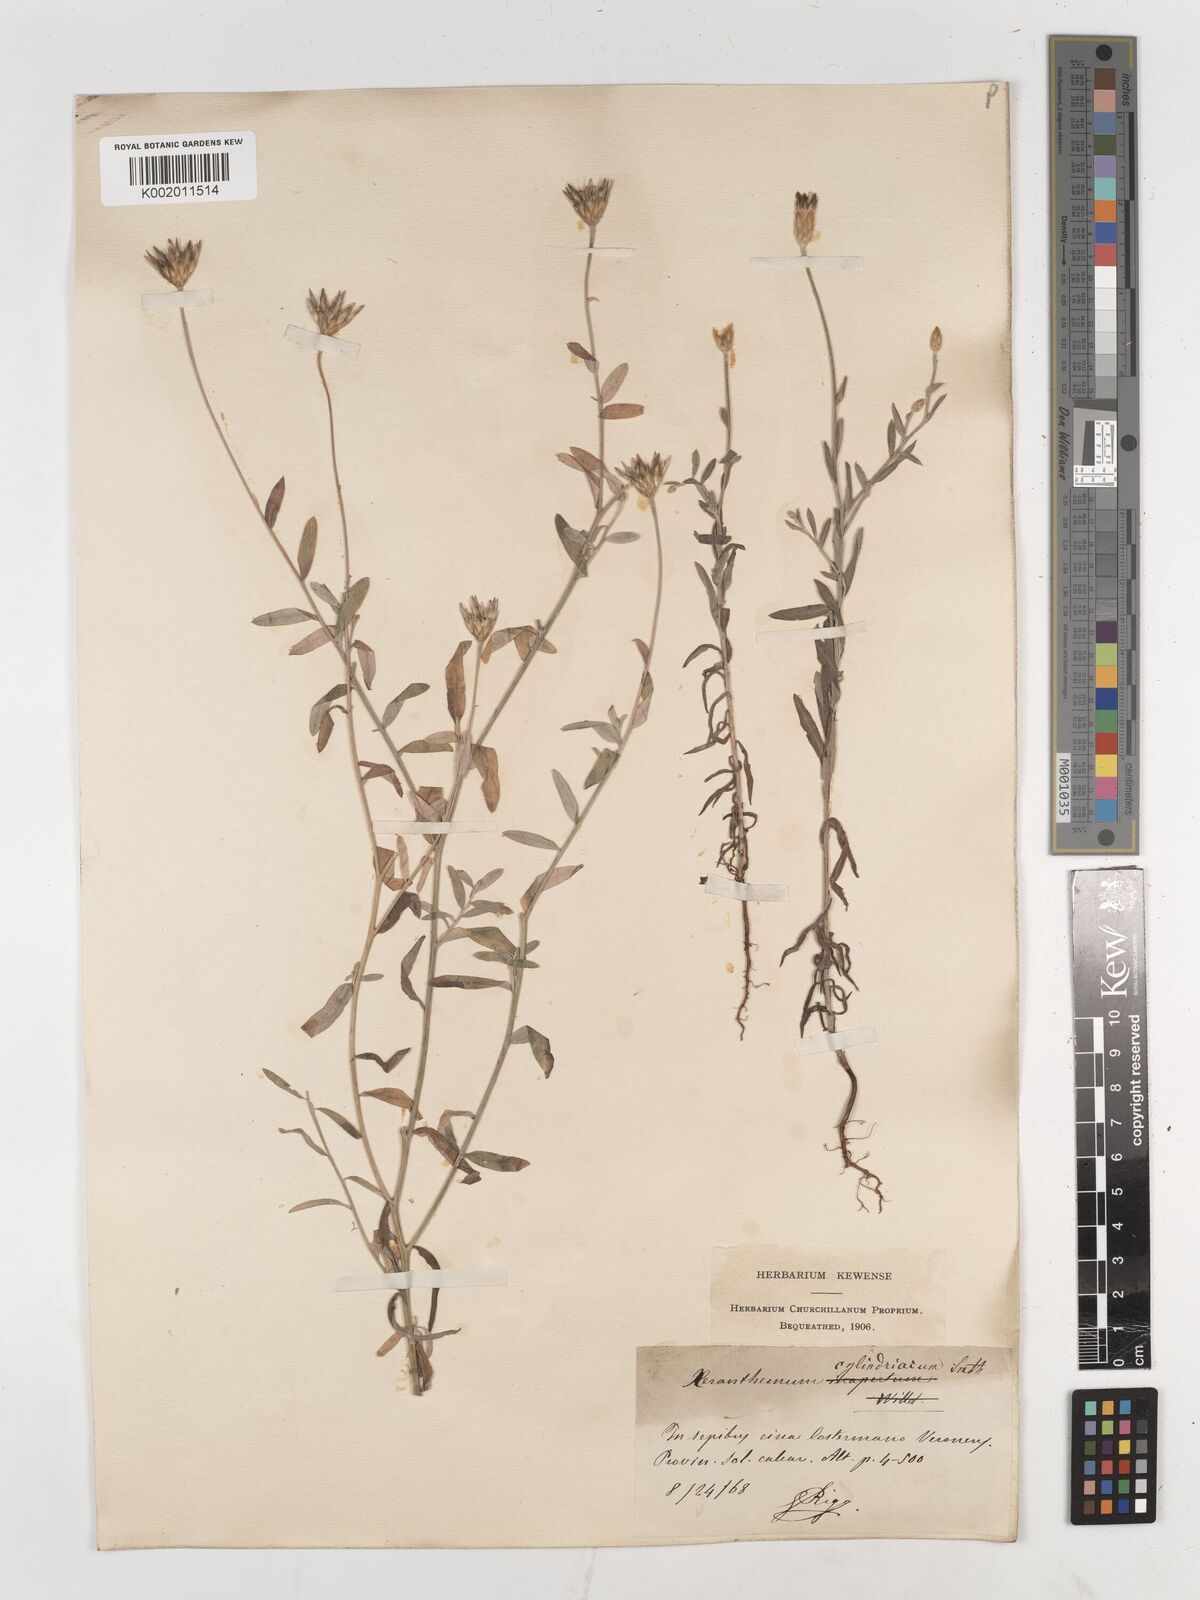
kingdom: Plantae
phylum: Tracheophyta
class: Magnoliopsida
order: Asterales
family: Asteraceae
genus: Xeranthemum
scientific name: Xeranthemum cylindraceum
